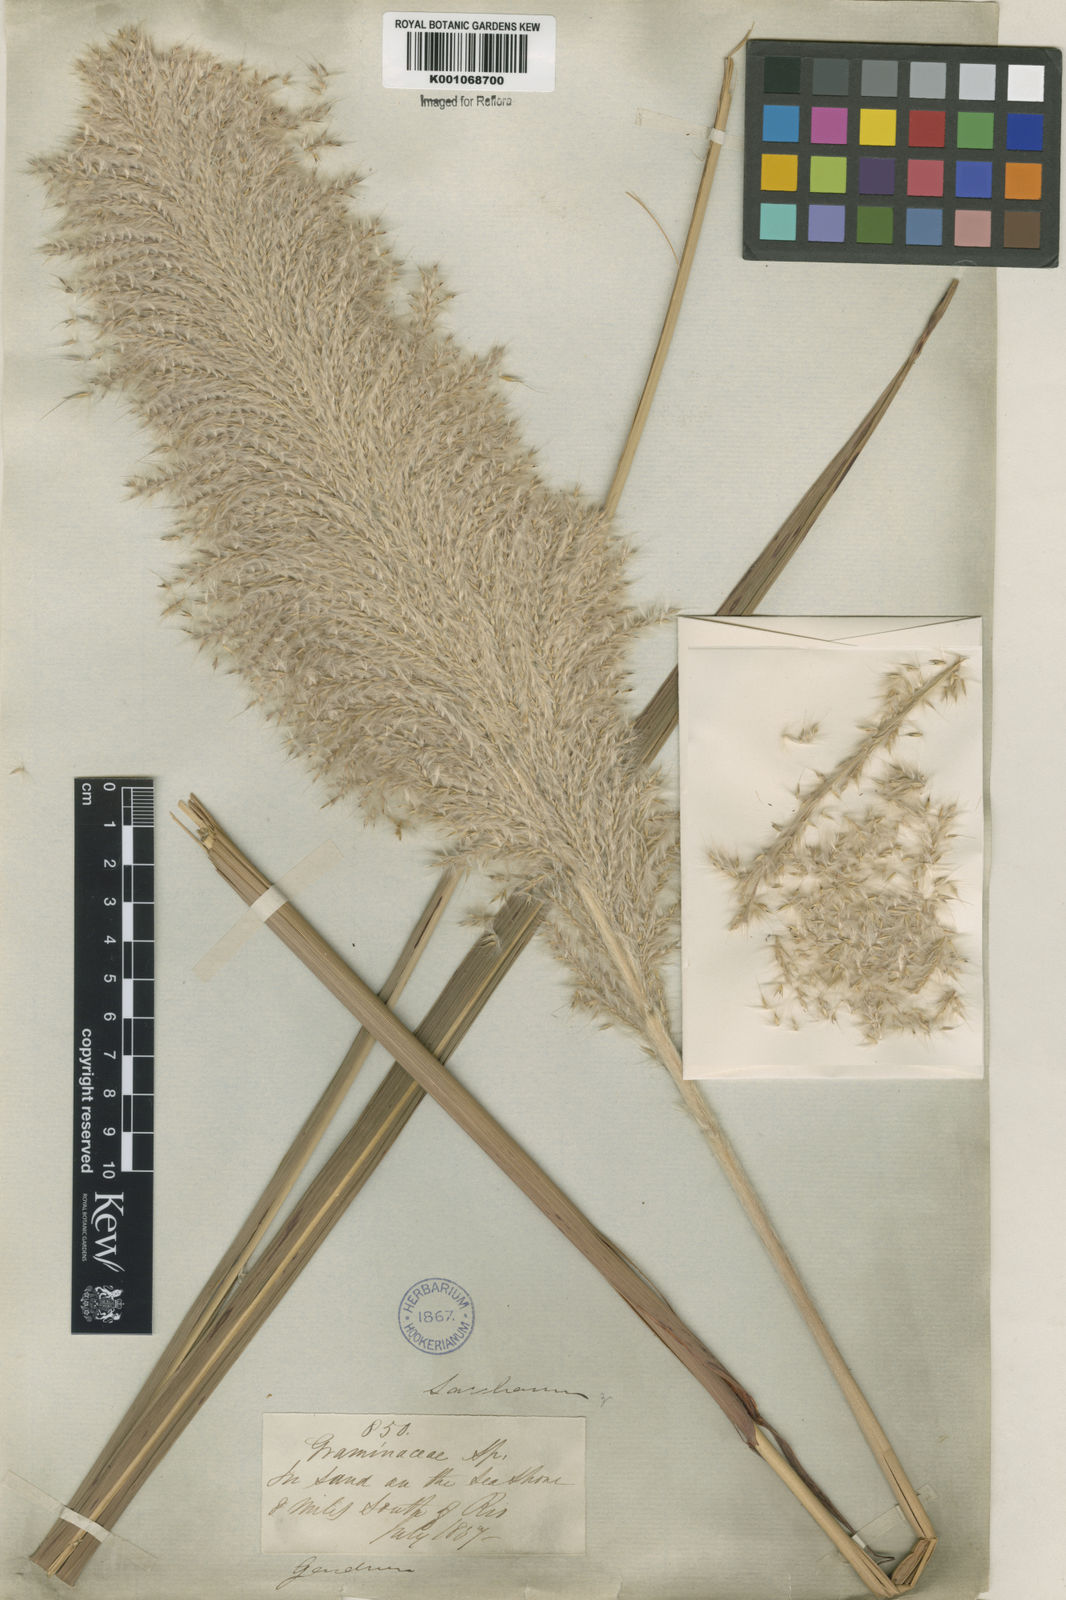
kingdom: Plantae
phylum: Tracheophyta
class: Liliopsida
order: Poales
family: Poaceae
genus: Erianthus
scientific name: Erianthus asper
